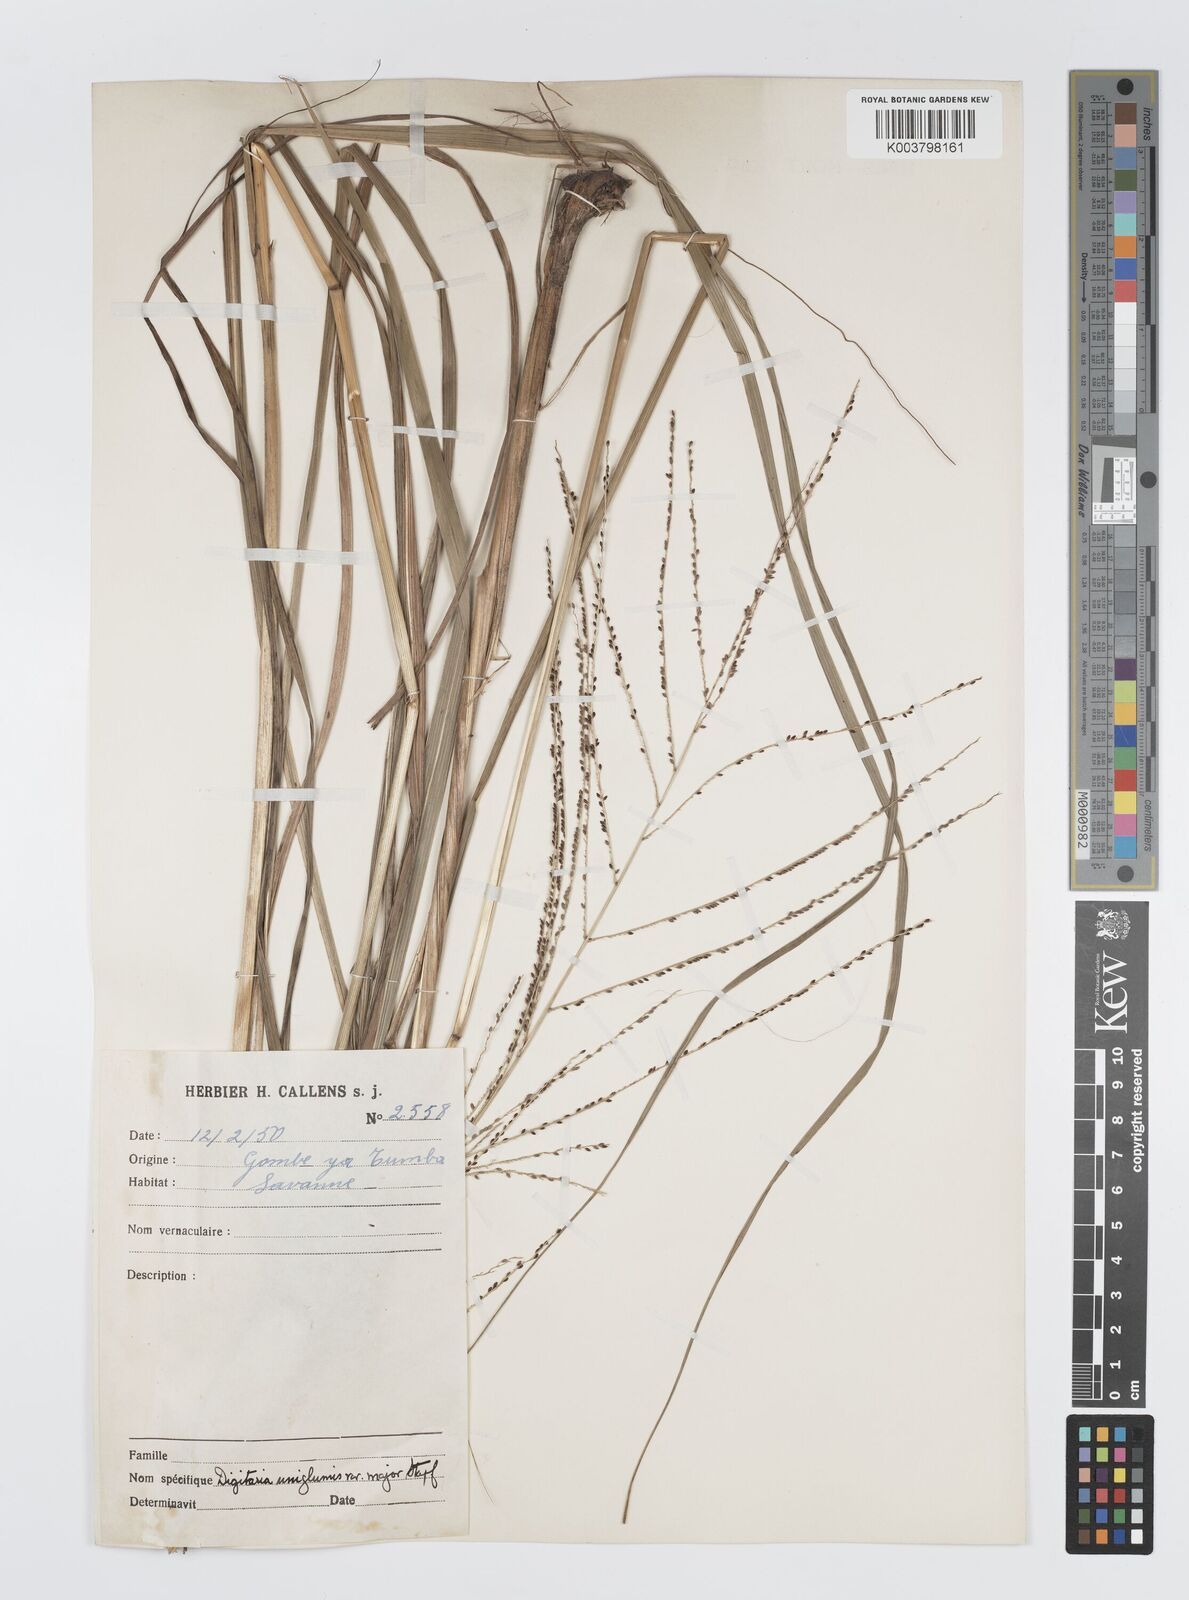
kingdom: Plantae
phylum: Tracheophyta
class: Liliopsida
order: Poales
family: Poaceae
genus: Digitaria
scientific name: Digitaria diagonalis
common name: Brown-seed finger grass
